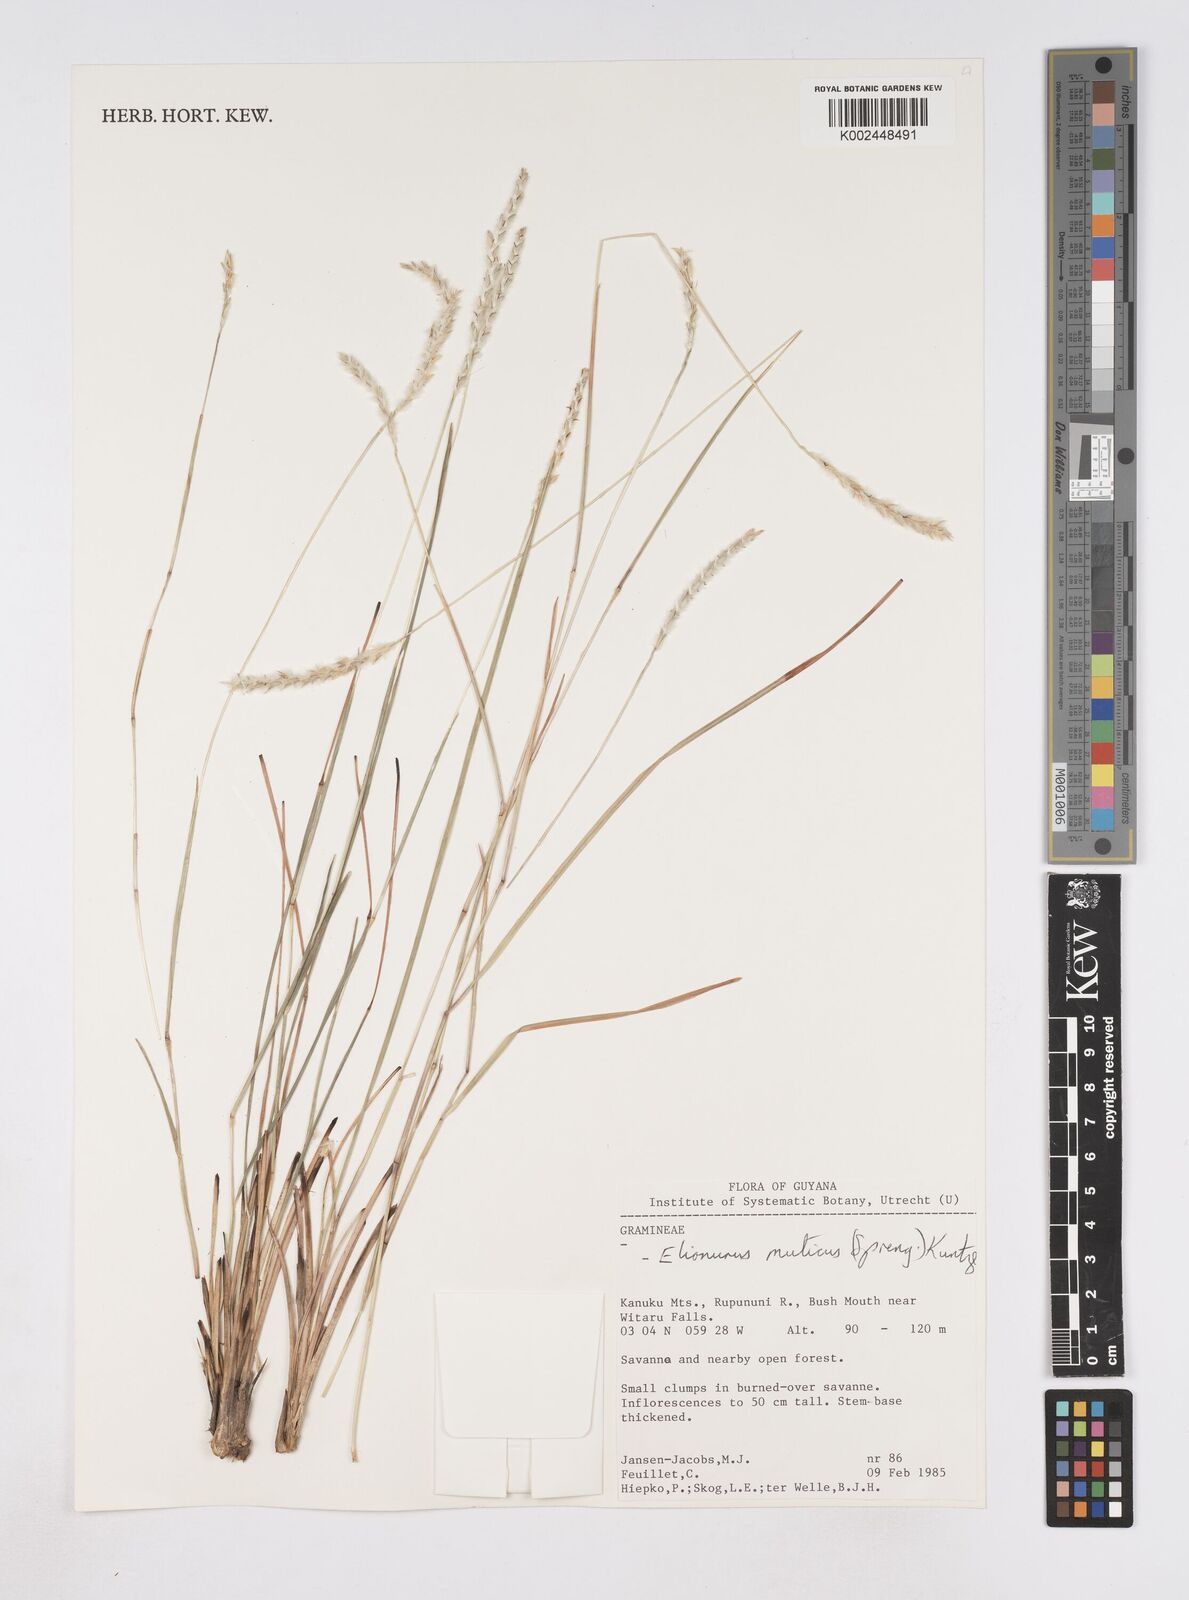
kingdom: Plantae
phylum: Tracheophyta
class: Liliopsida
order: Poales
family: Poaceae
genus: Elionurus
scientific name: Elionurus muticus
